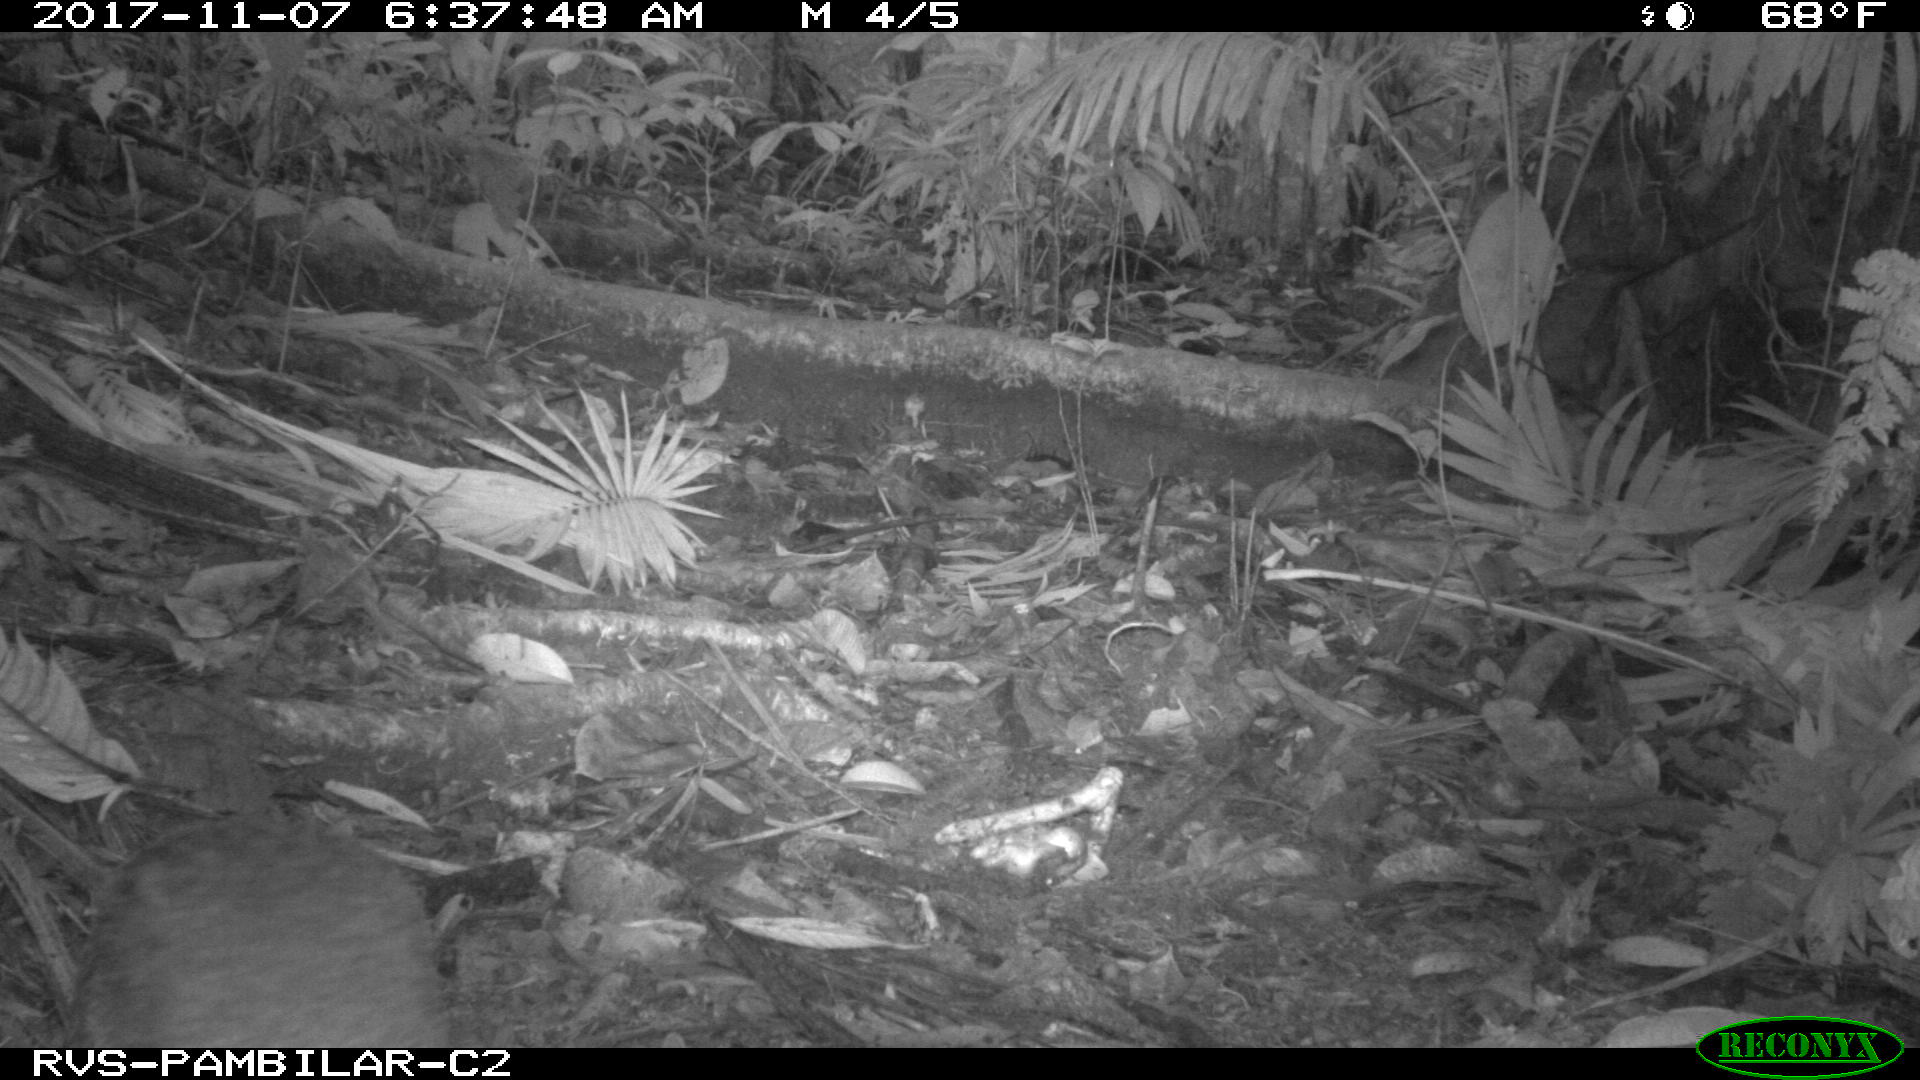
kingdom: Animalia
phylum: Chordata
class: Mammalia
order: Rodentia
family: Dasyproctidae
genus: Dasyprocta
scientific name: Dasyprocta punctata
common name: Central american agouti
